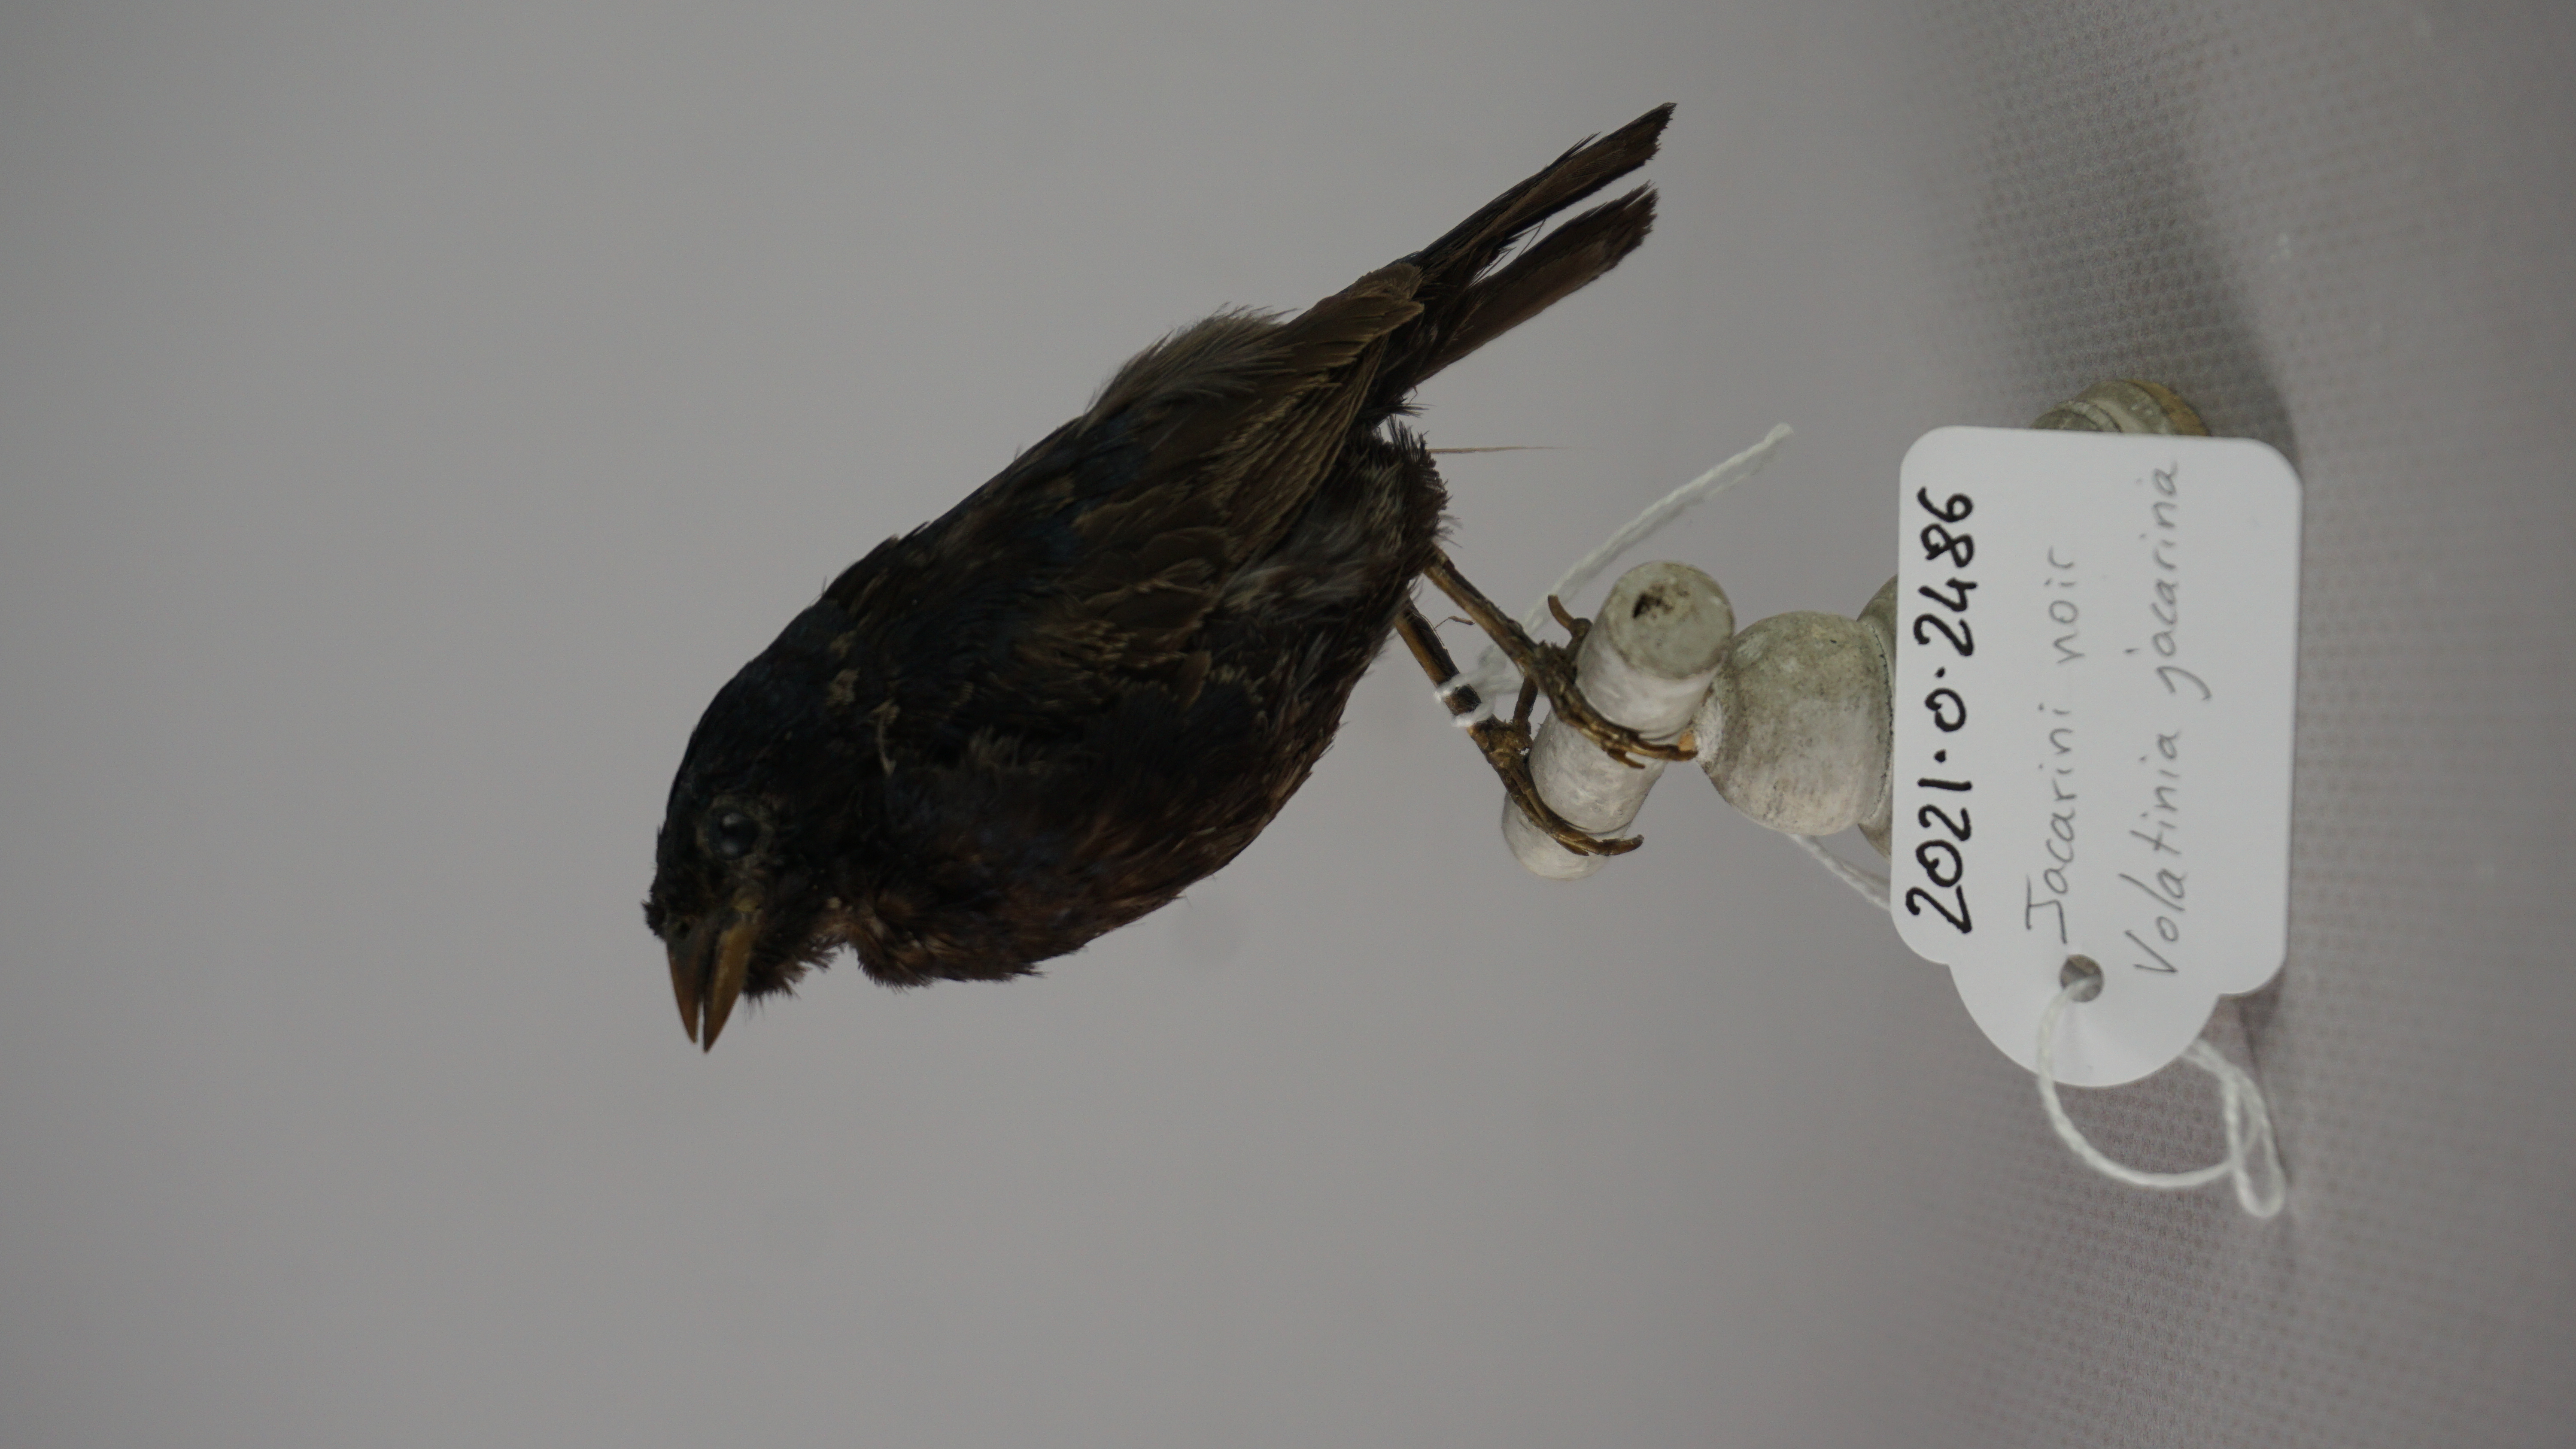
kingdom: Animalia
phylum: Chordata
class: Aves
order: Passeriformes
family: Thraupidae
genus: Volatinia
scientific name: Volatinia jacarina
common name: Blue-black grassquit
